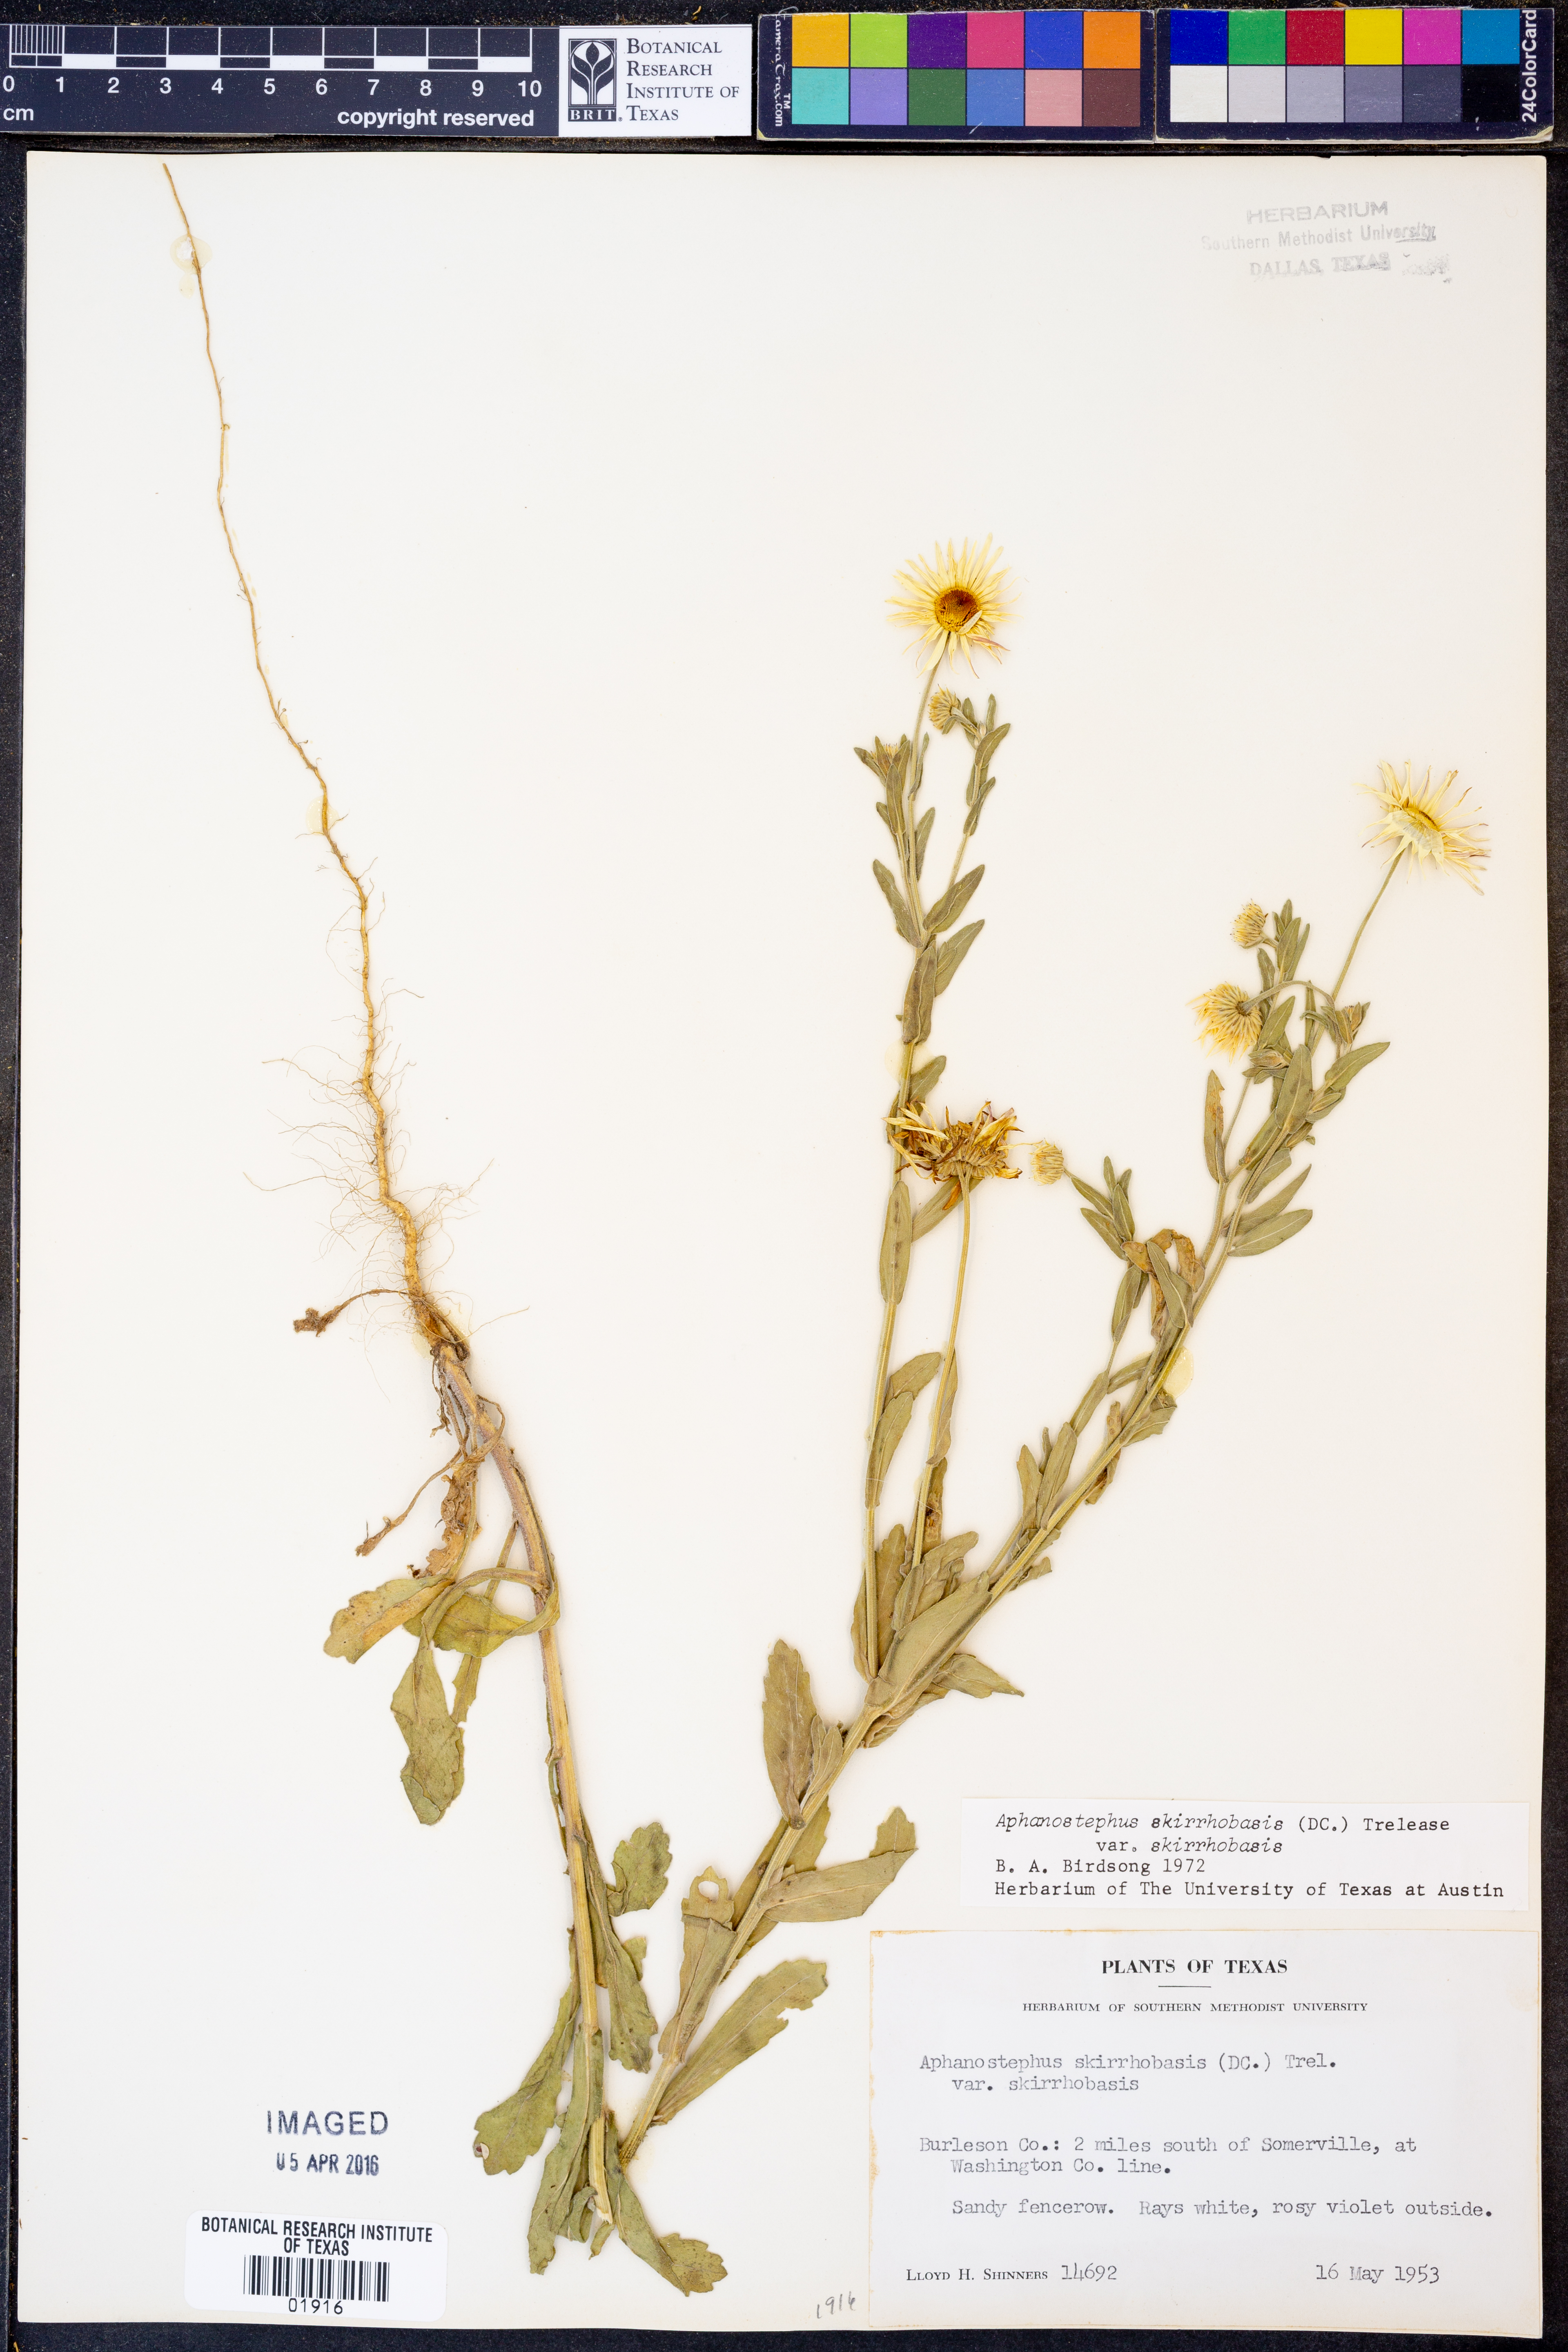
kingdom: Plantae
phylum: Tracheophyta
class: Magnoliopsida
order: Asterales
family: Asteraceae
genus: Aphanostephus
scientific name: Aphanostephus skirrhobasis
